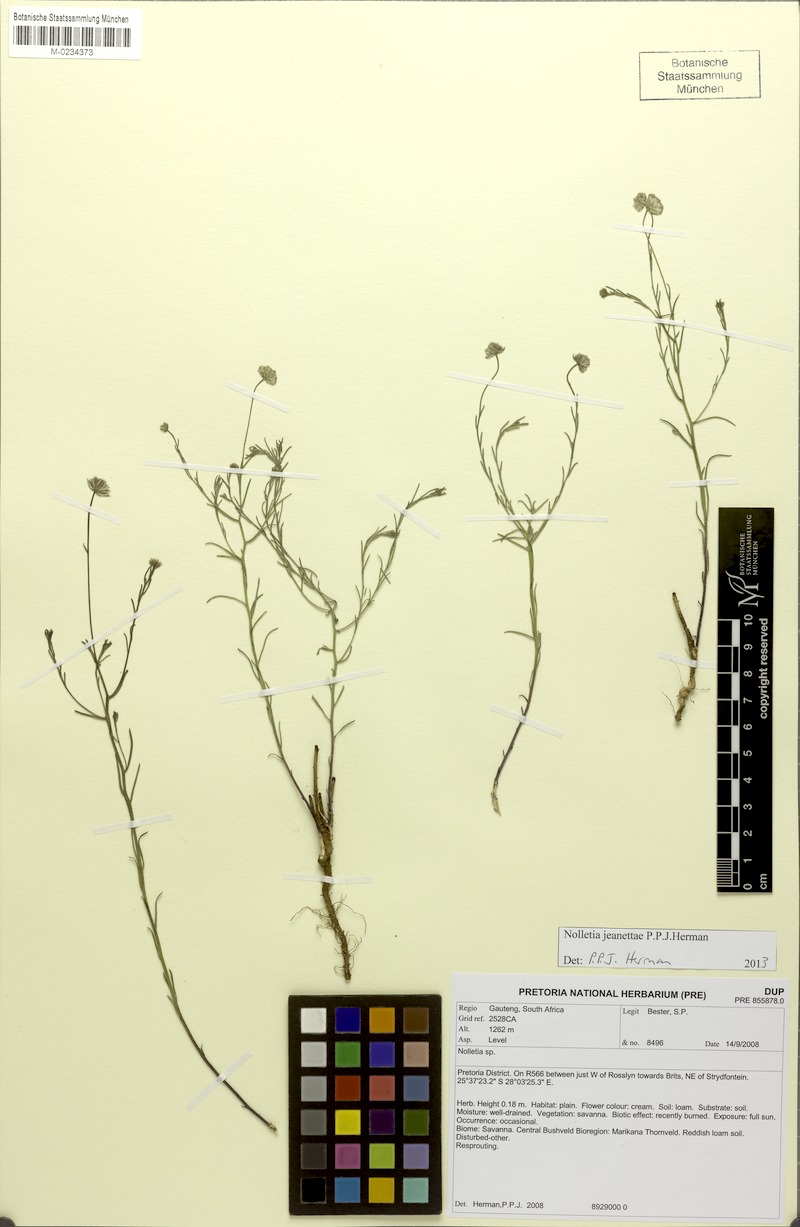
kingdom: Plantae
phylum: Tracheophyta
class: Magnoliopsida
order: Asterales
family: Asteraceae
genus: Nolletia
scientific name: Nolletia jeanettae
